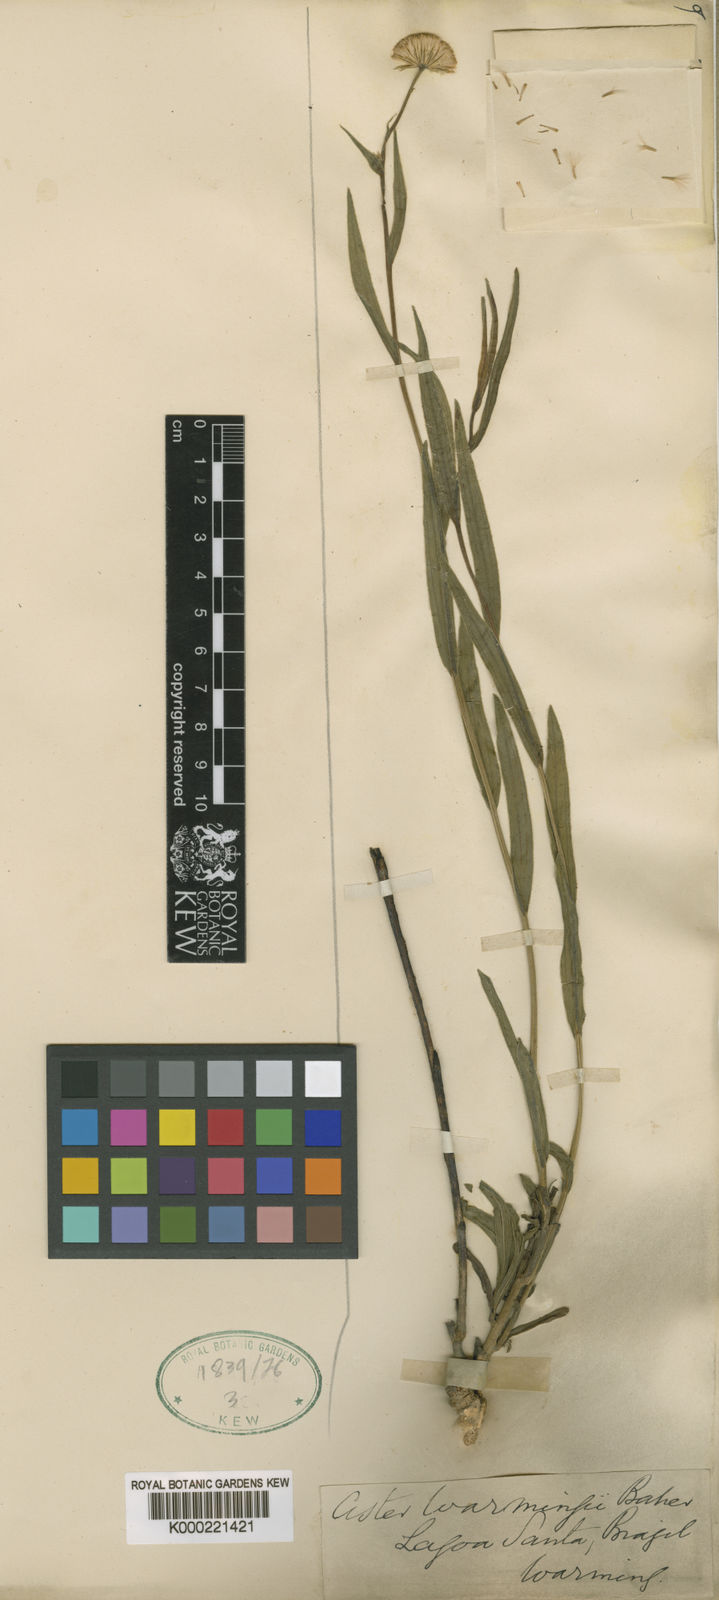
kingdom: Plantae
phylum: Tracheophyta
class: Magnoliopsida
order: Asterales
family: Asteraceae
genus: Apopyros
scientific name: Apopyros warmingii
